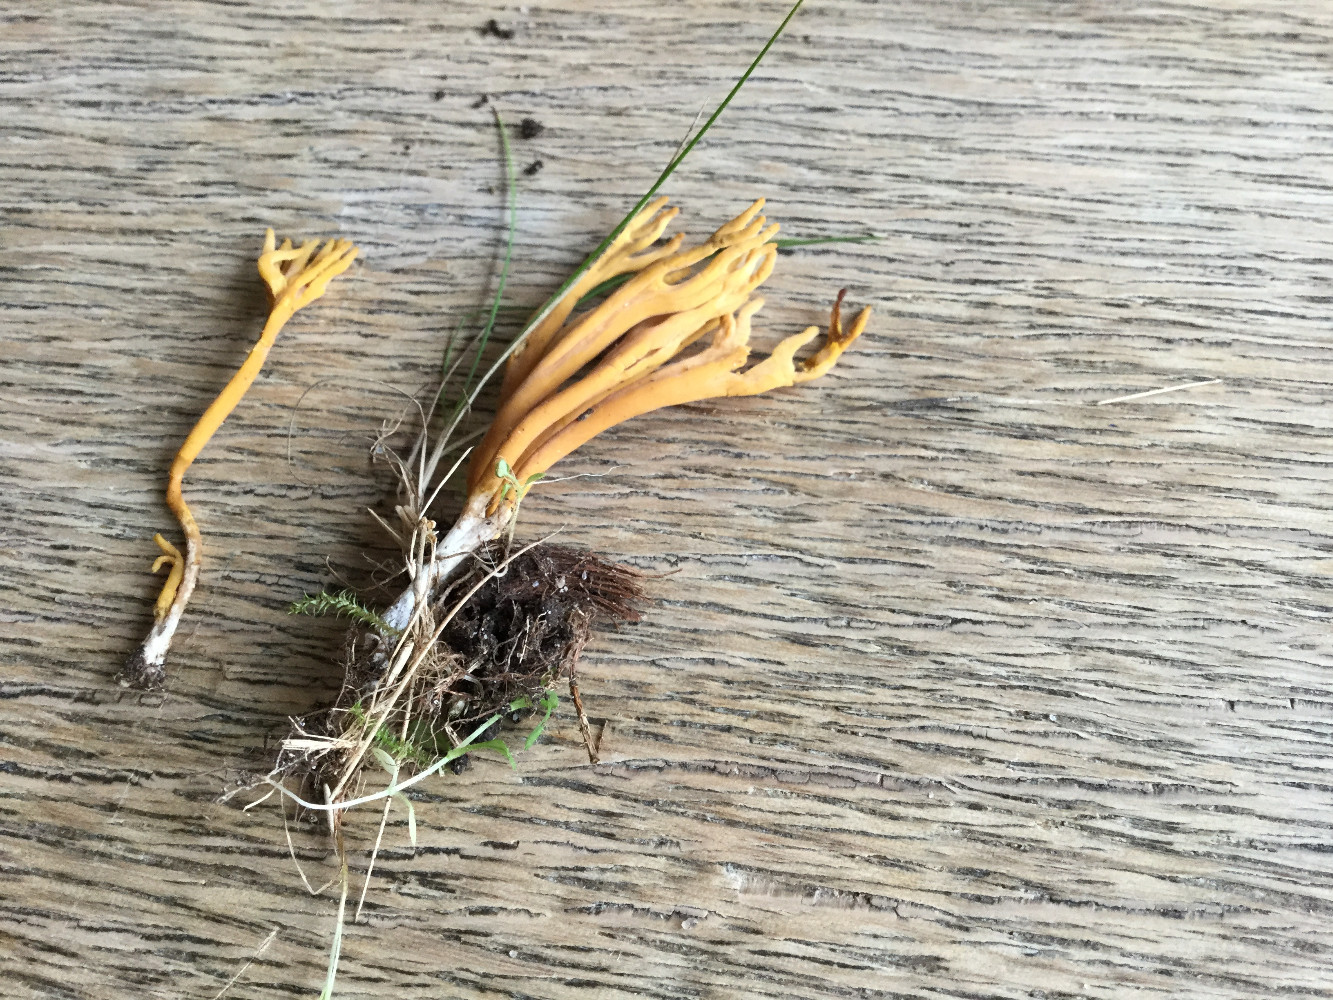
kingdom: Fungi
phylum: Basidiomycota
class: Agaricomycetes
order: Agaricales
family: Clavariaceae
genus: Clavulinopsis
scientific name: Clavulinopsis corniculata
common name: eng-køllesvamp
